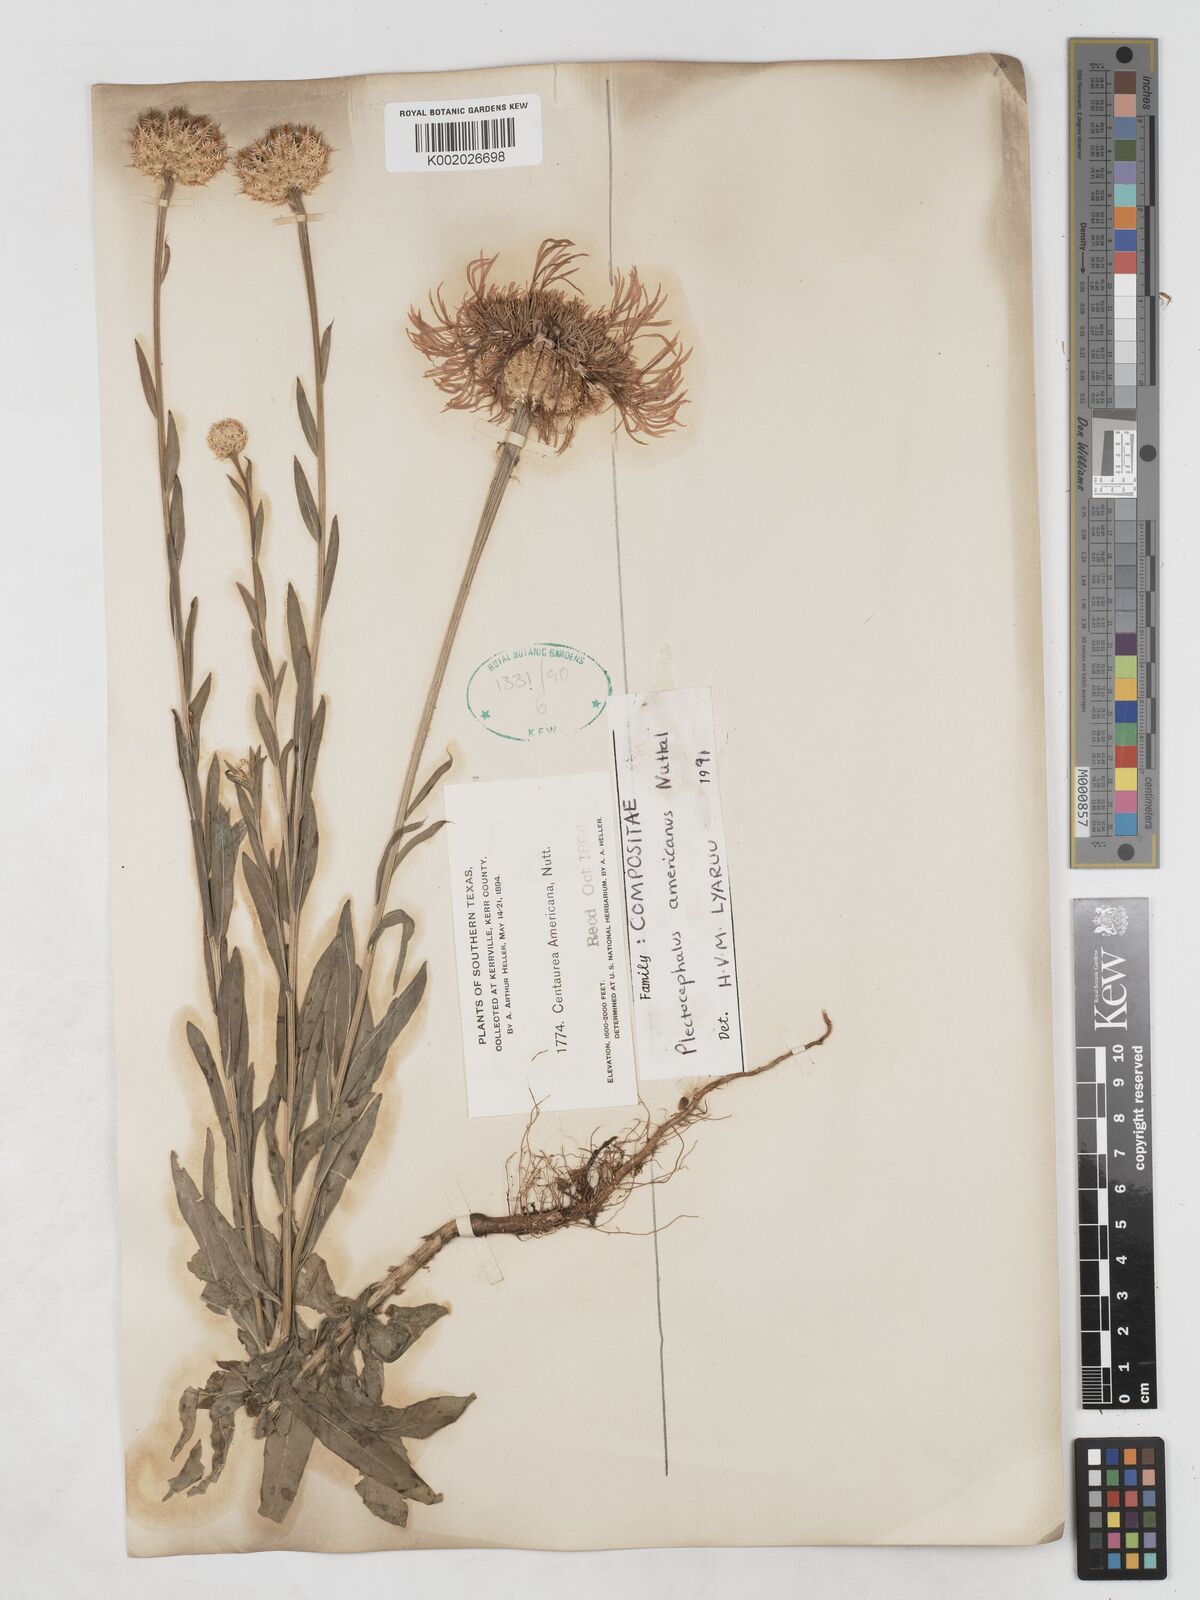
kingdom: Plantae
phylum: Tracheophyta
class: Magnoliopsida
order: Asterales
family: Asteraceae
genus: Plectocephalus
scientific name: Plectocephalus americanus
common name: American basket-flower
